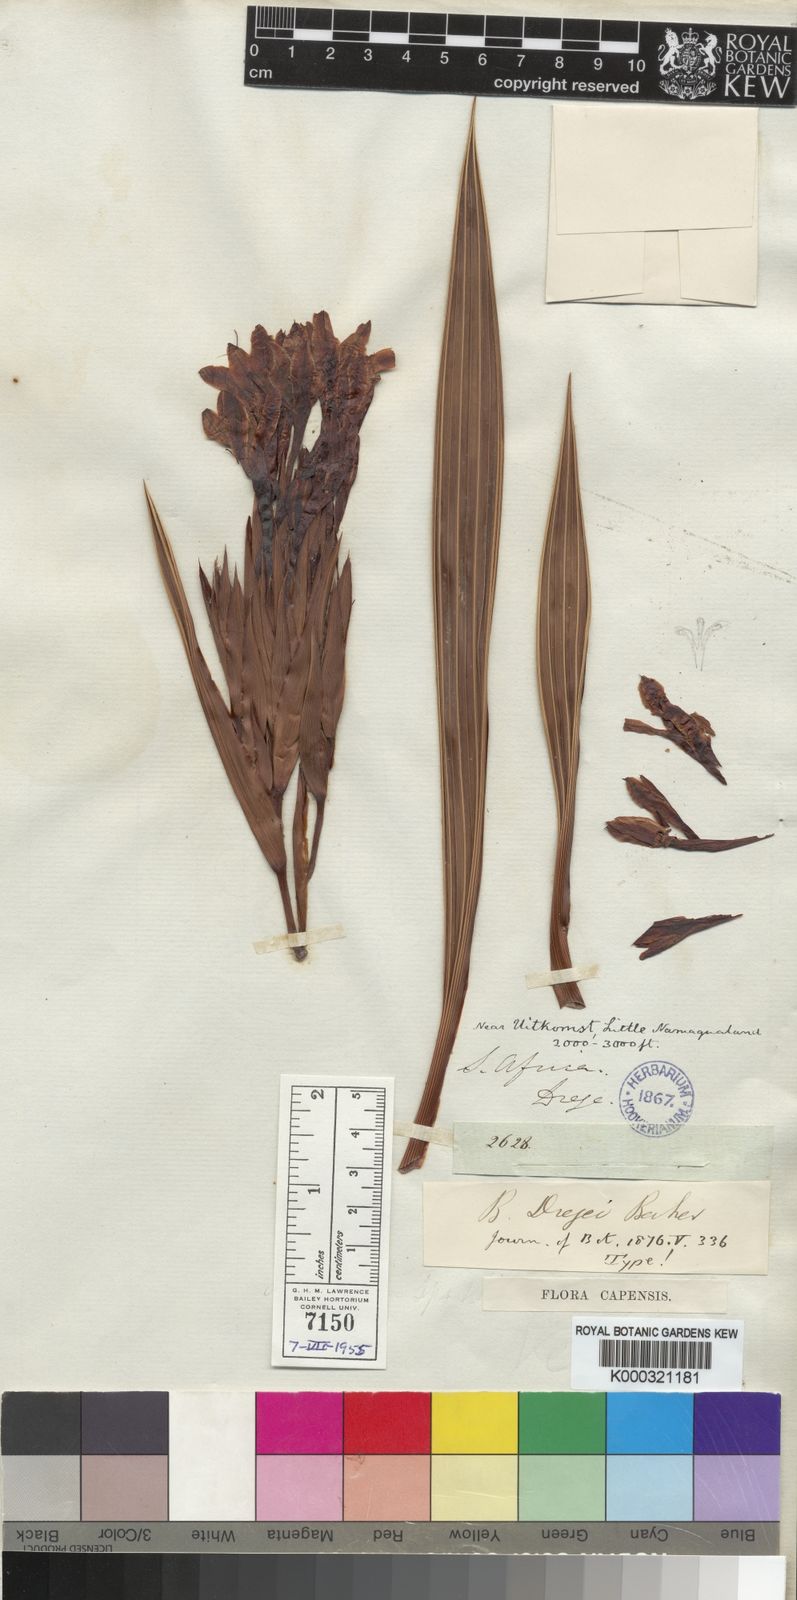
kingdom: Plantae
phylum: Tracheophyta
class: Liliopsida
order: Asparagales
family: Iridaceae
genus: Babiana
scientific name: Babiana dregei
